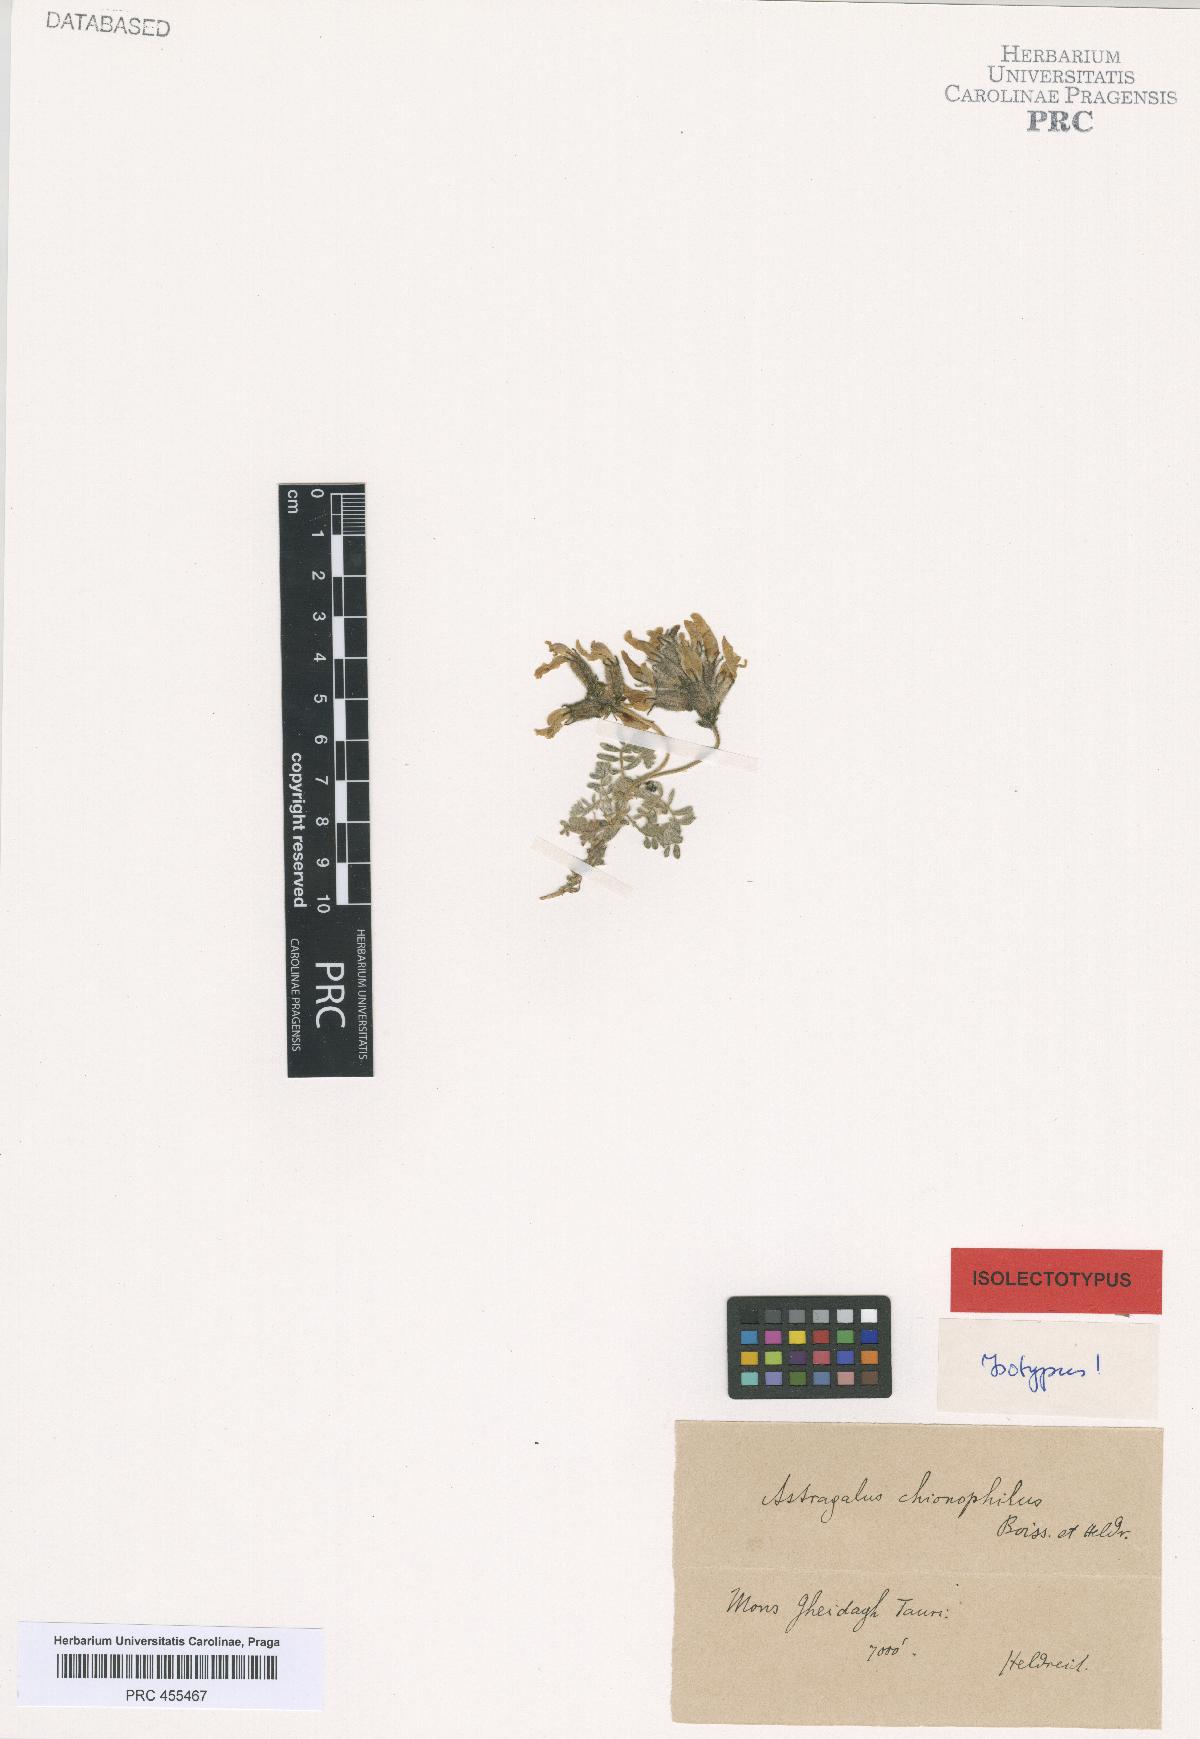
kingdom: Plantae
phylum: Tracheophyta
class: Magnoliopsida
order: Fabales
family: Fabaceae
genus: Astragalus
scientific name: Astragalus lineatus
